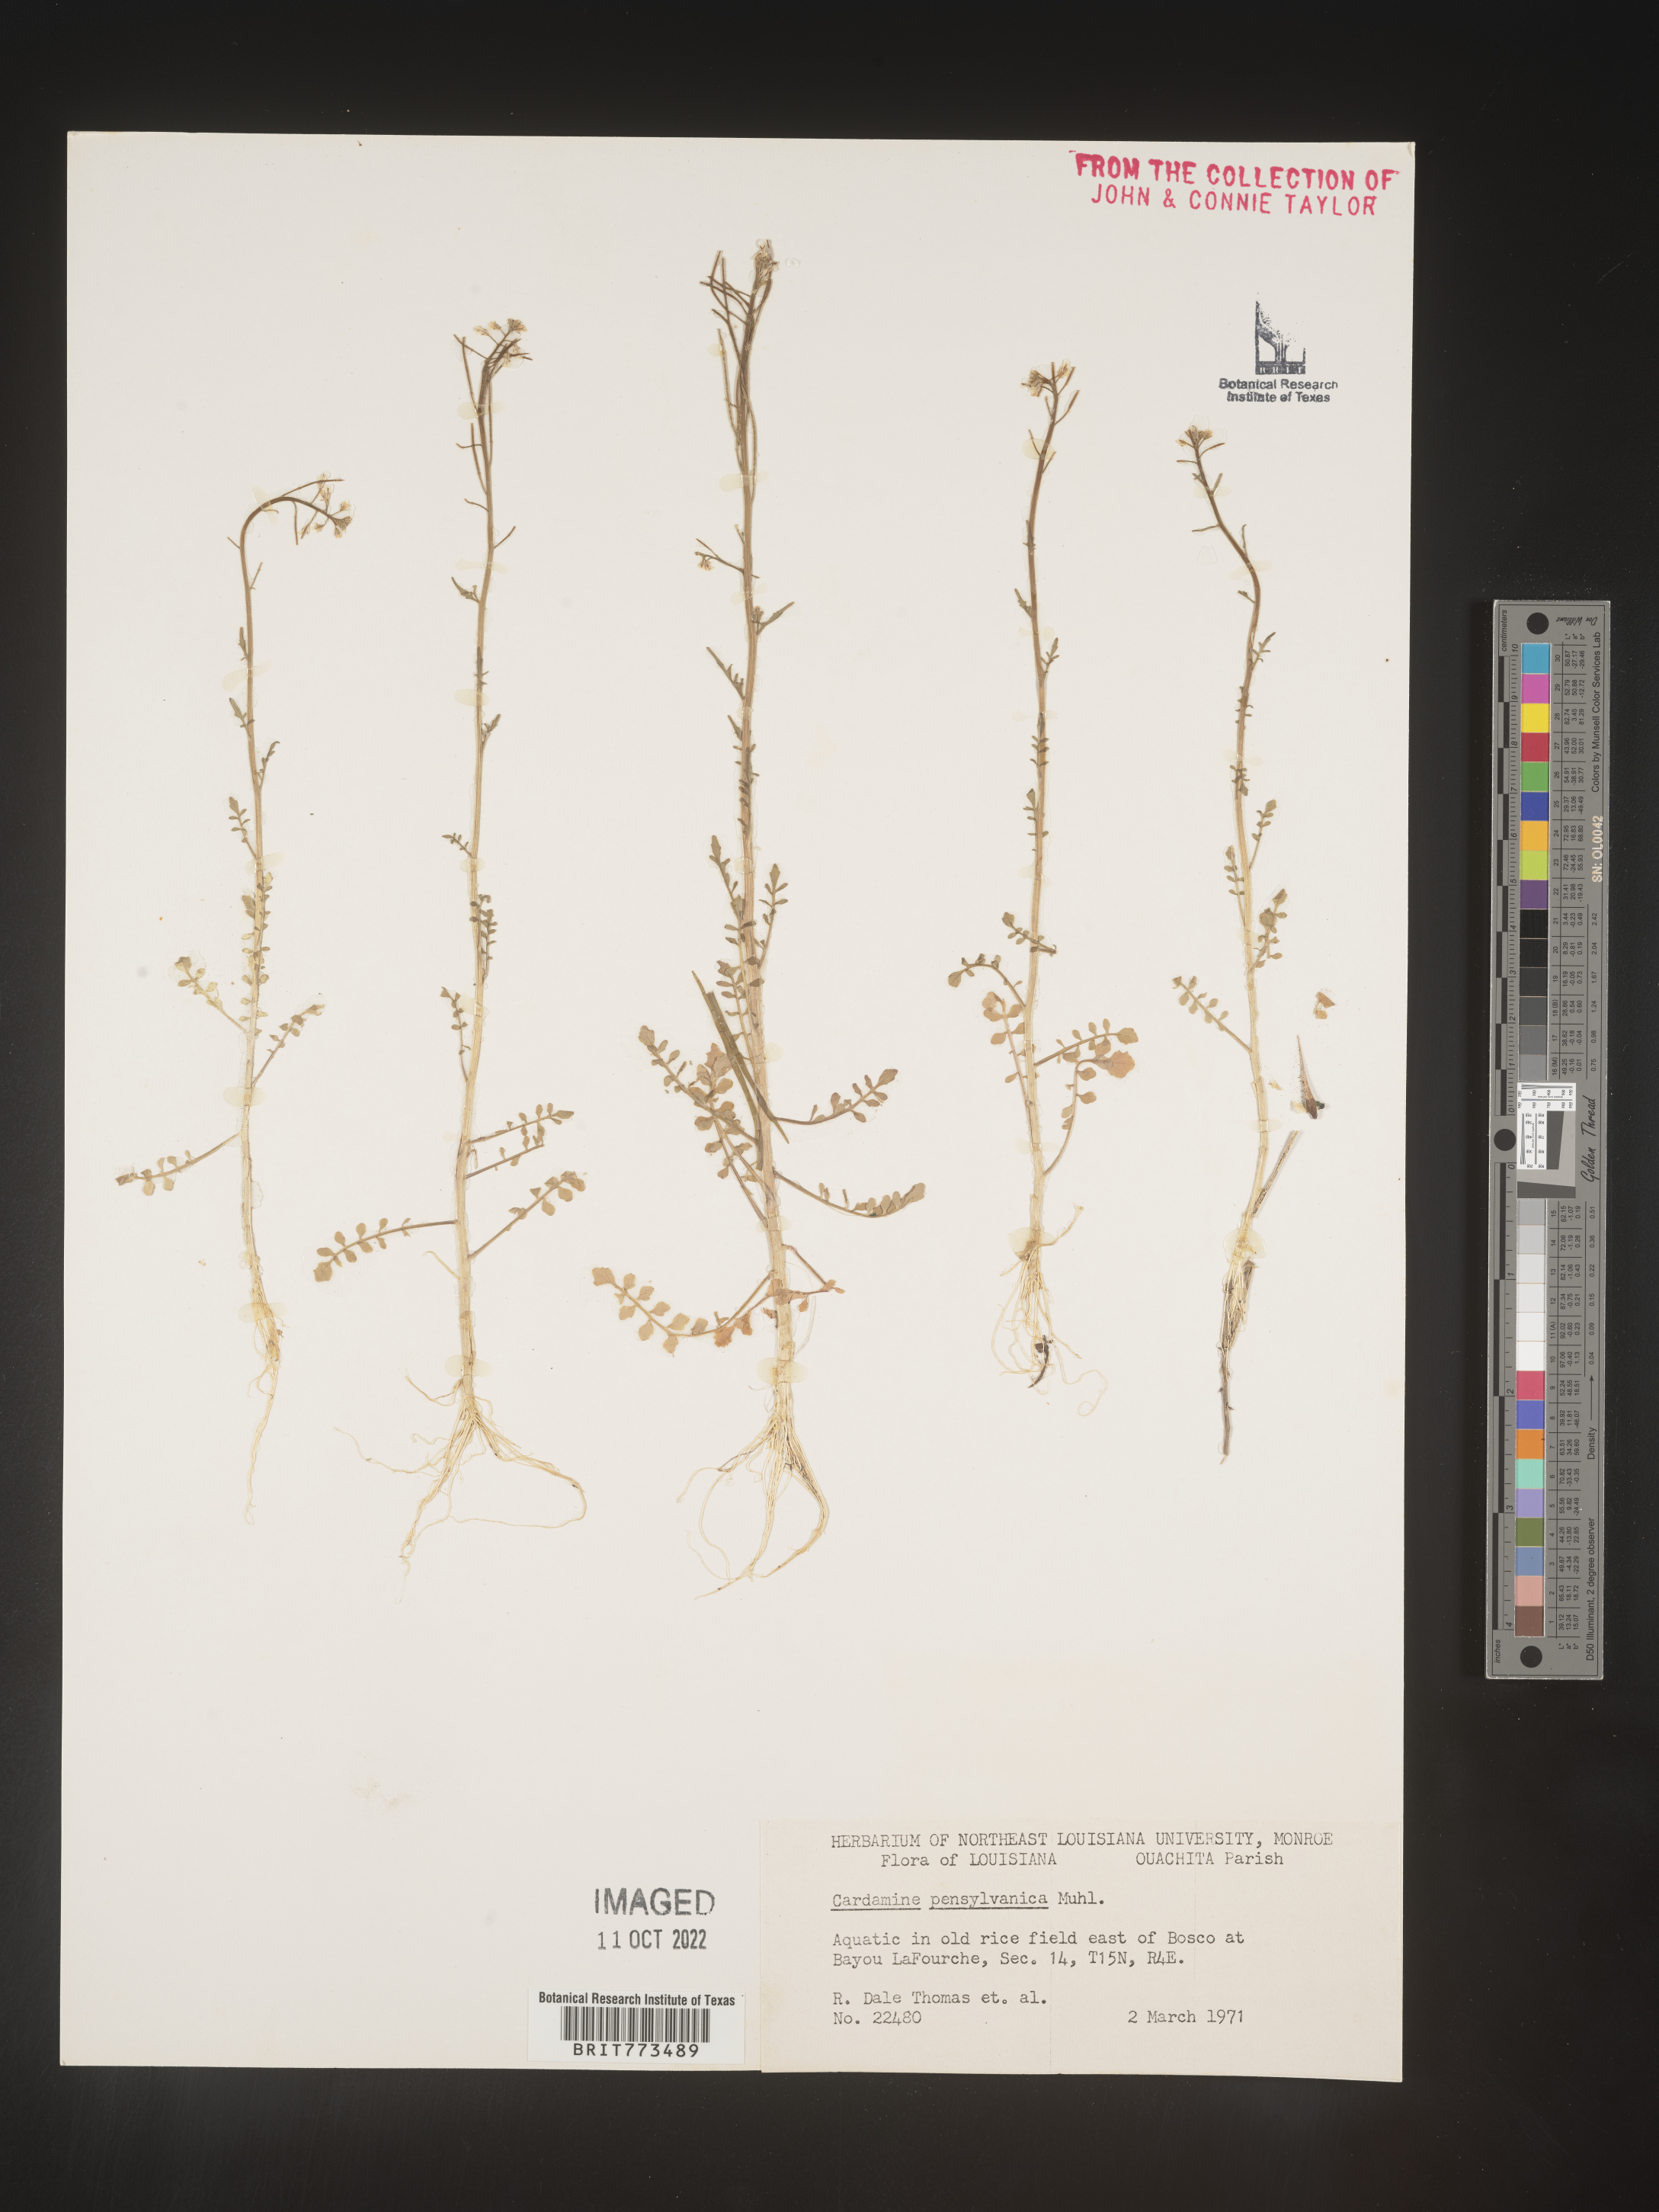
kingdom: Plantae
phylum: Tracheophyta
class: Magnoliopsida
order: Brassicales
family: Brassicaceae
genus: Cardamine
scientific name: Cardamine pensylvanica
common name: Pennsylvania bittercress
